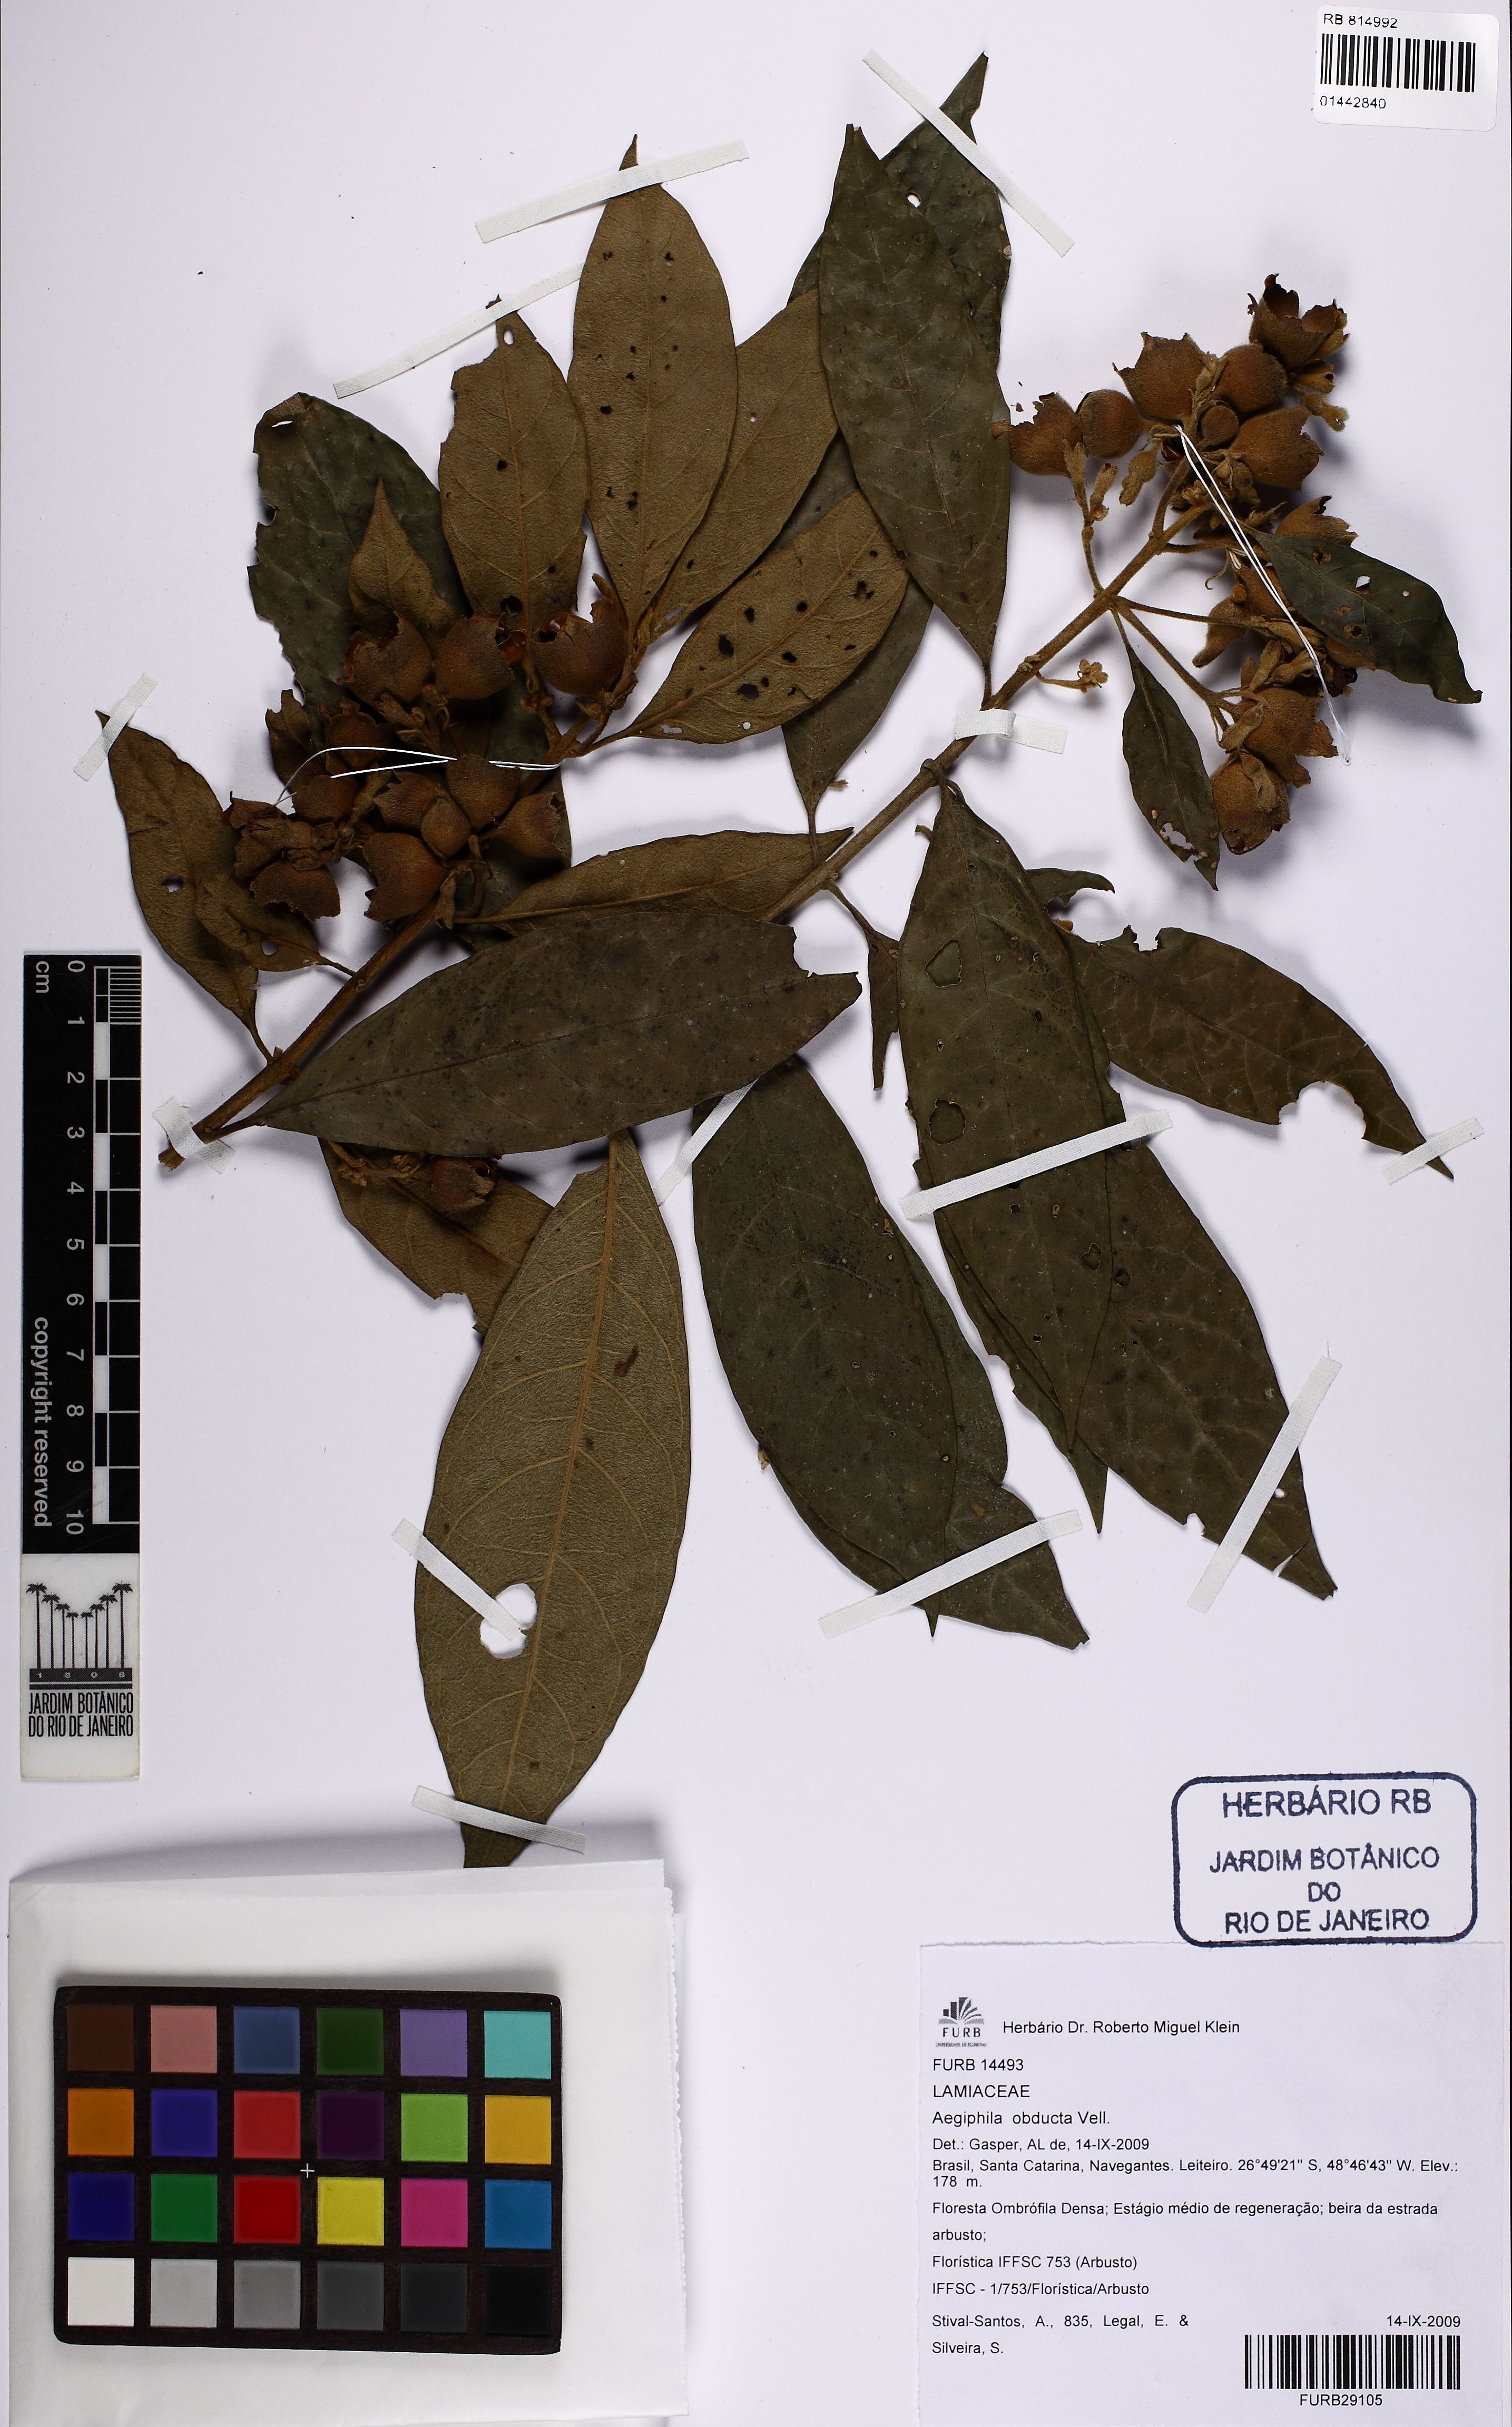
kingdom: Plantae
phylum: Tracheophyta
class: Magnoliopsida
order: Lamiales
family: Lamiaceae
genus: Aegiphila
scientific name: Aegiphila obducta
